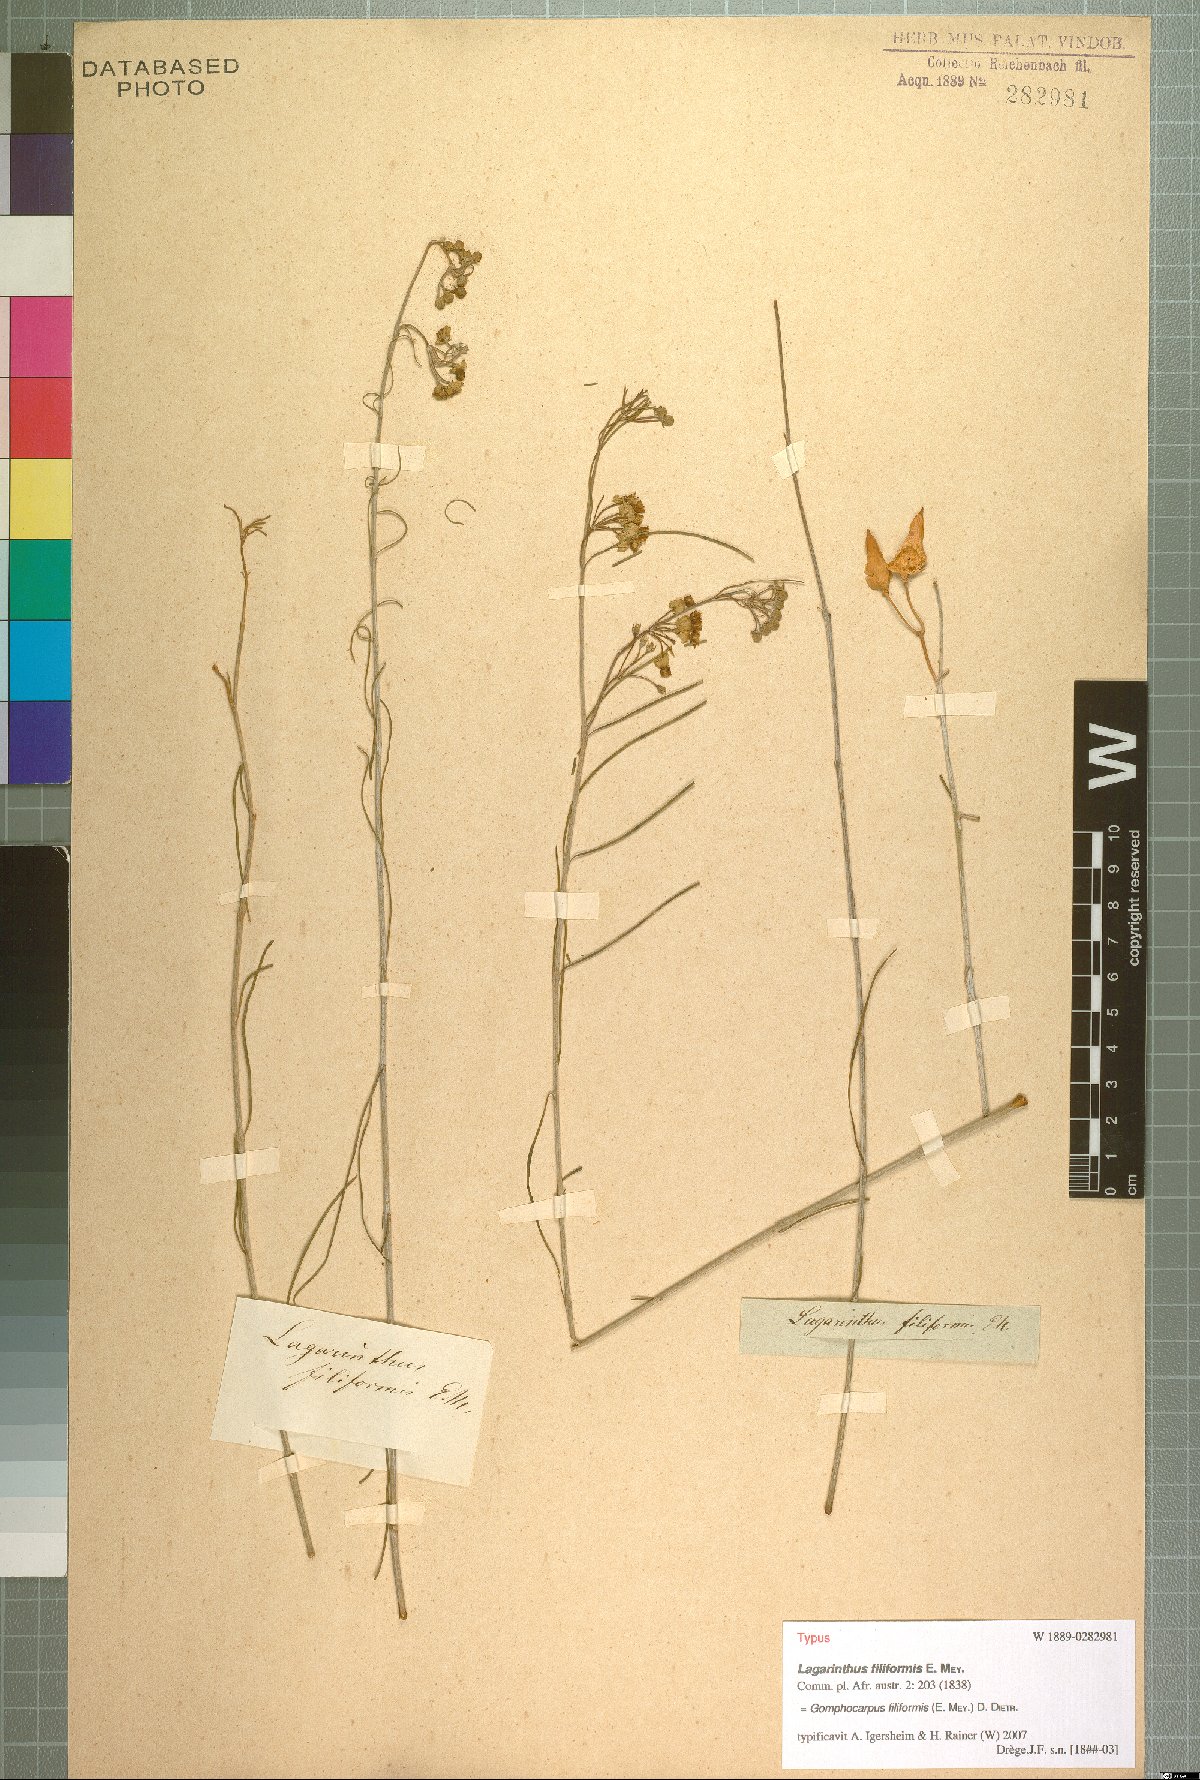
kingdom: Plantae
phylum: Tracheophyta
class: Magnoliopsida
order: Gentianales
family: Apocynaceae
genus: Gomphocarpus
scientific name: Gomphocarpus filiformis
